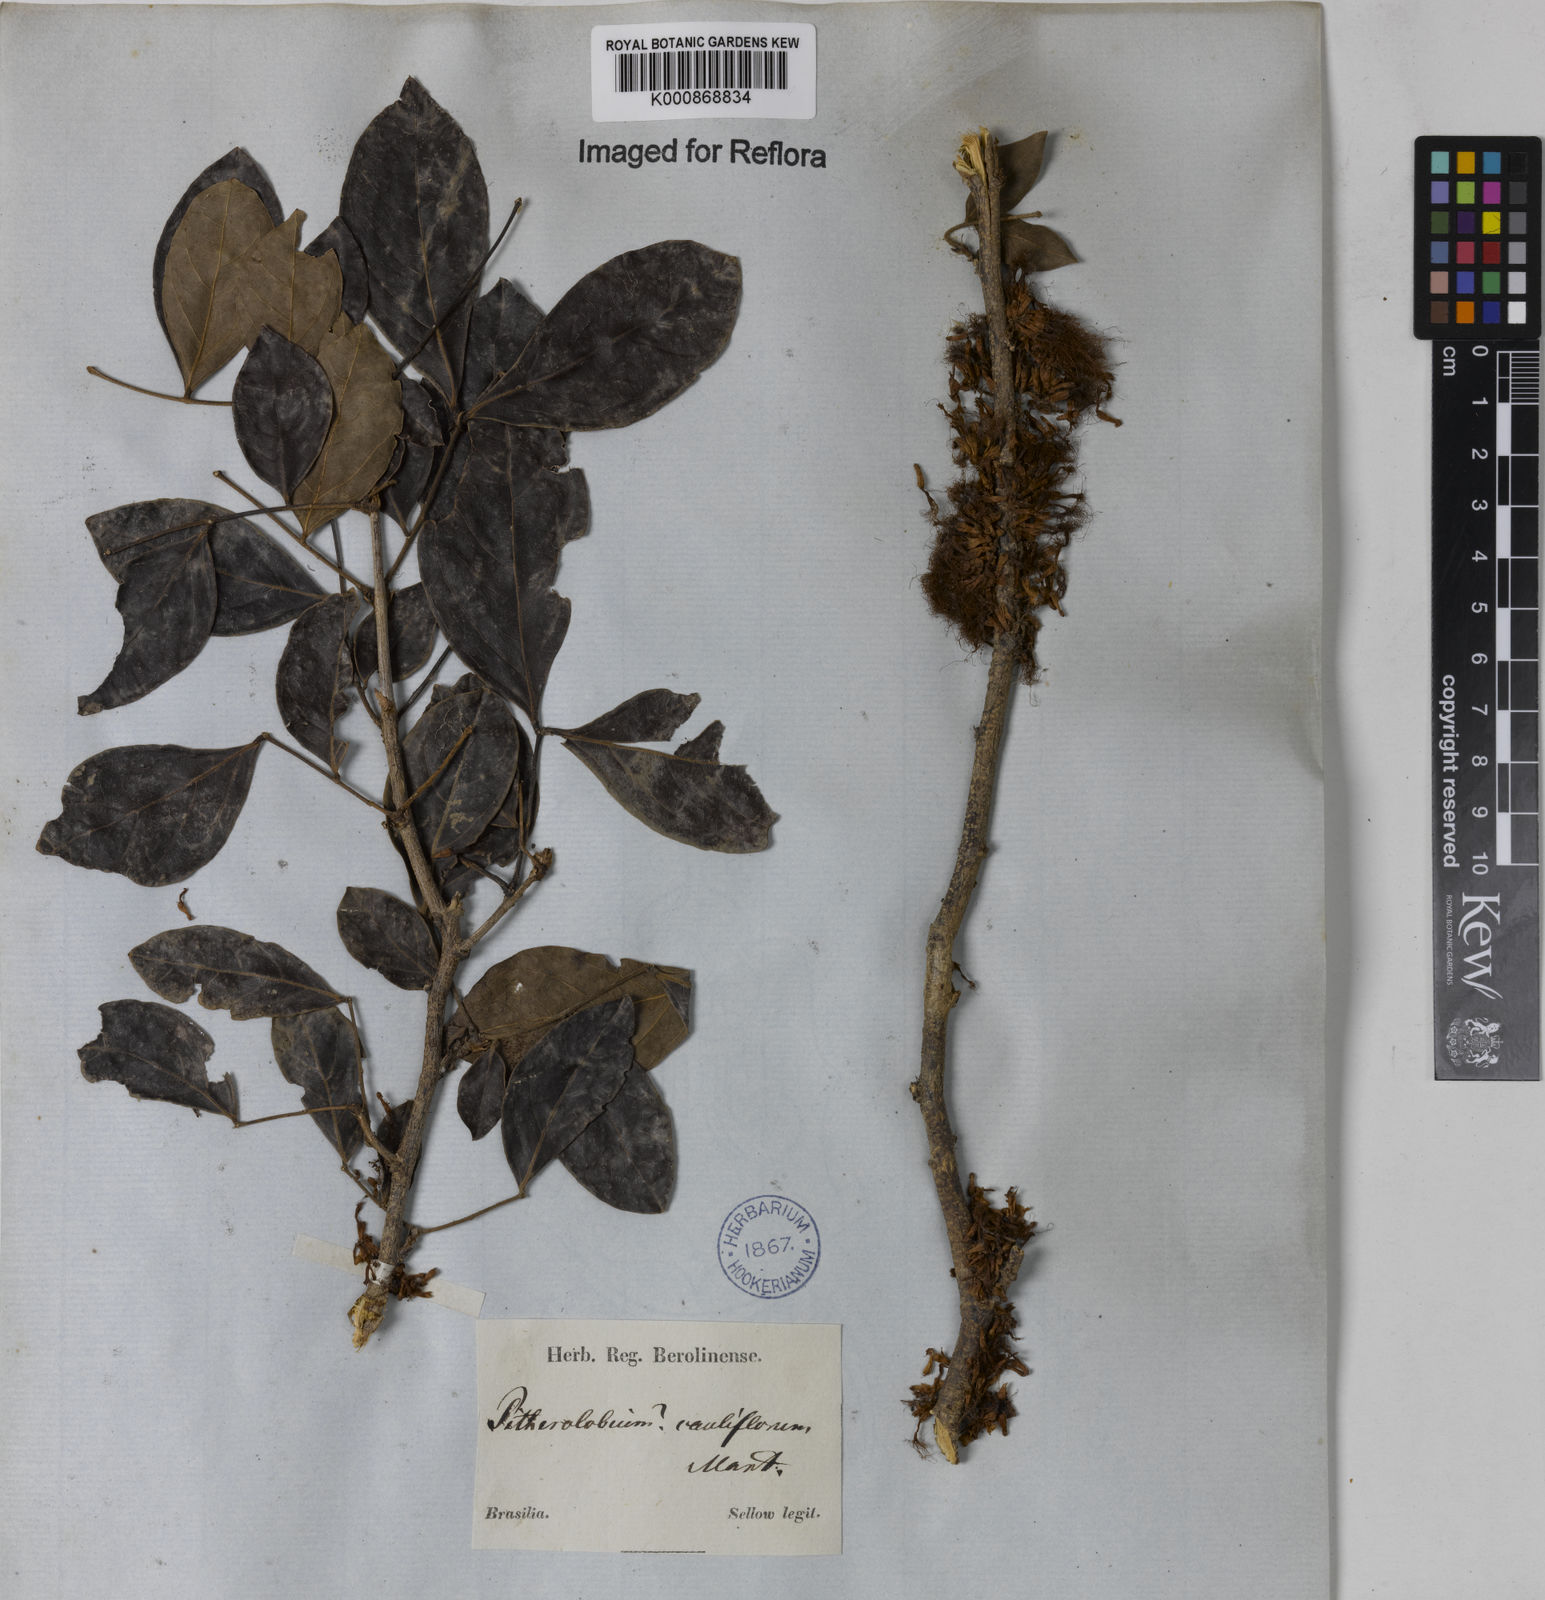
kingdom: Plantae
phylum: Tracheophyta
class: Magnoliopsida
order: Fabales
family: Fabaceae
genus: Zygia
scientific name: Zygia
